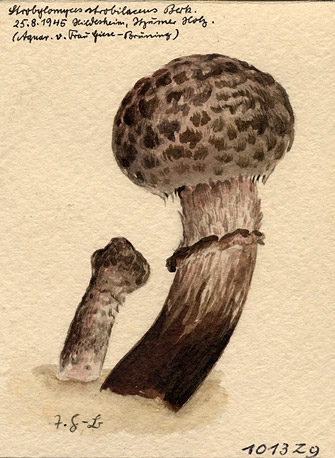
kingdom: Fungi
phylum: Basidiomycota
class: Agaricomycetes
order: Boletales
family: Boletaceae
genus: Strobilomyces
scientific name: Strobilomyces strobilaceus
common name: Old man of the woods
